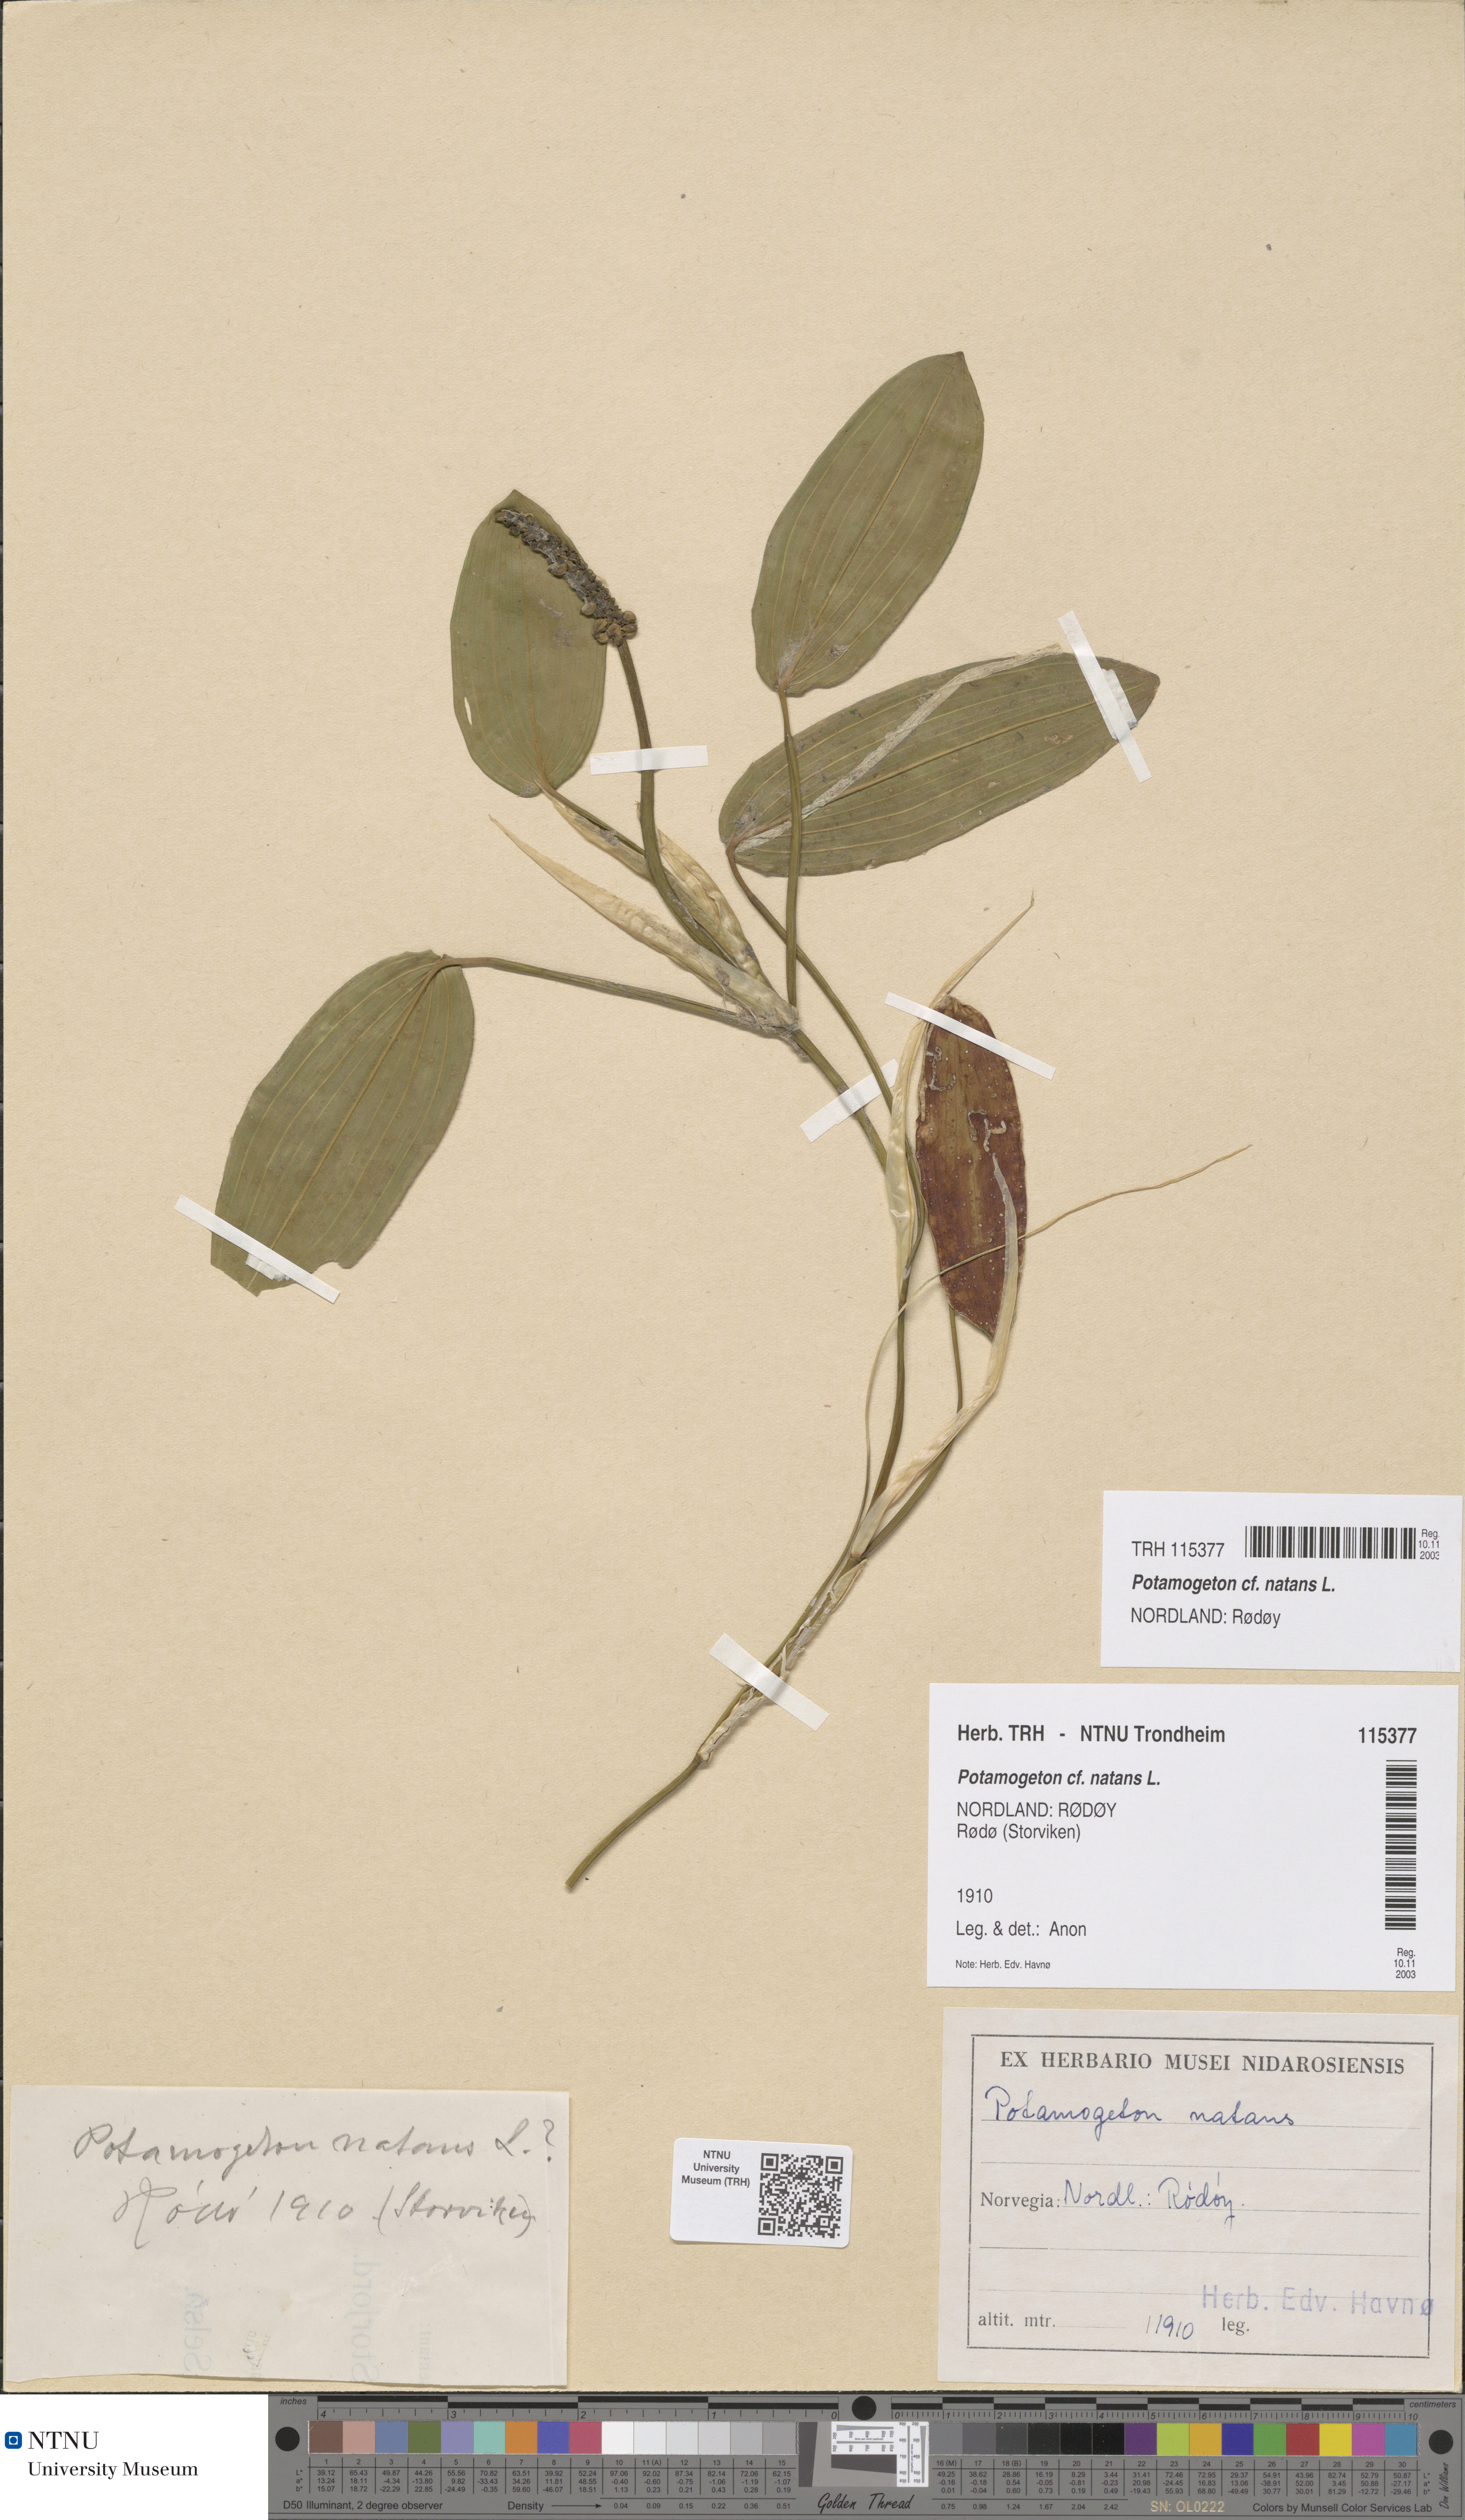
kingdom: Plantae
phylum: Tracheophyta
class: Liliopsida
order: Alismatales
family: Potamogetonaceae
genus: Potamogeton
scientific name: Potamogeton natans
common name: Broad-leaved pondweed
